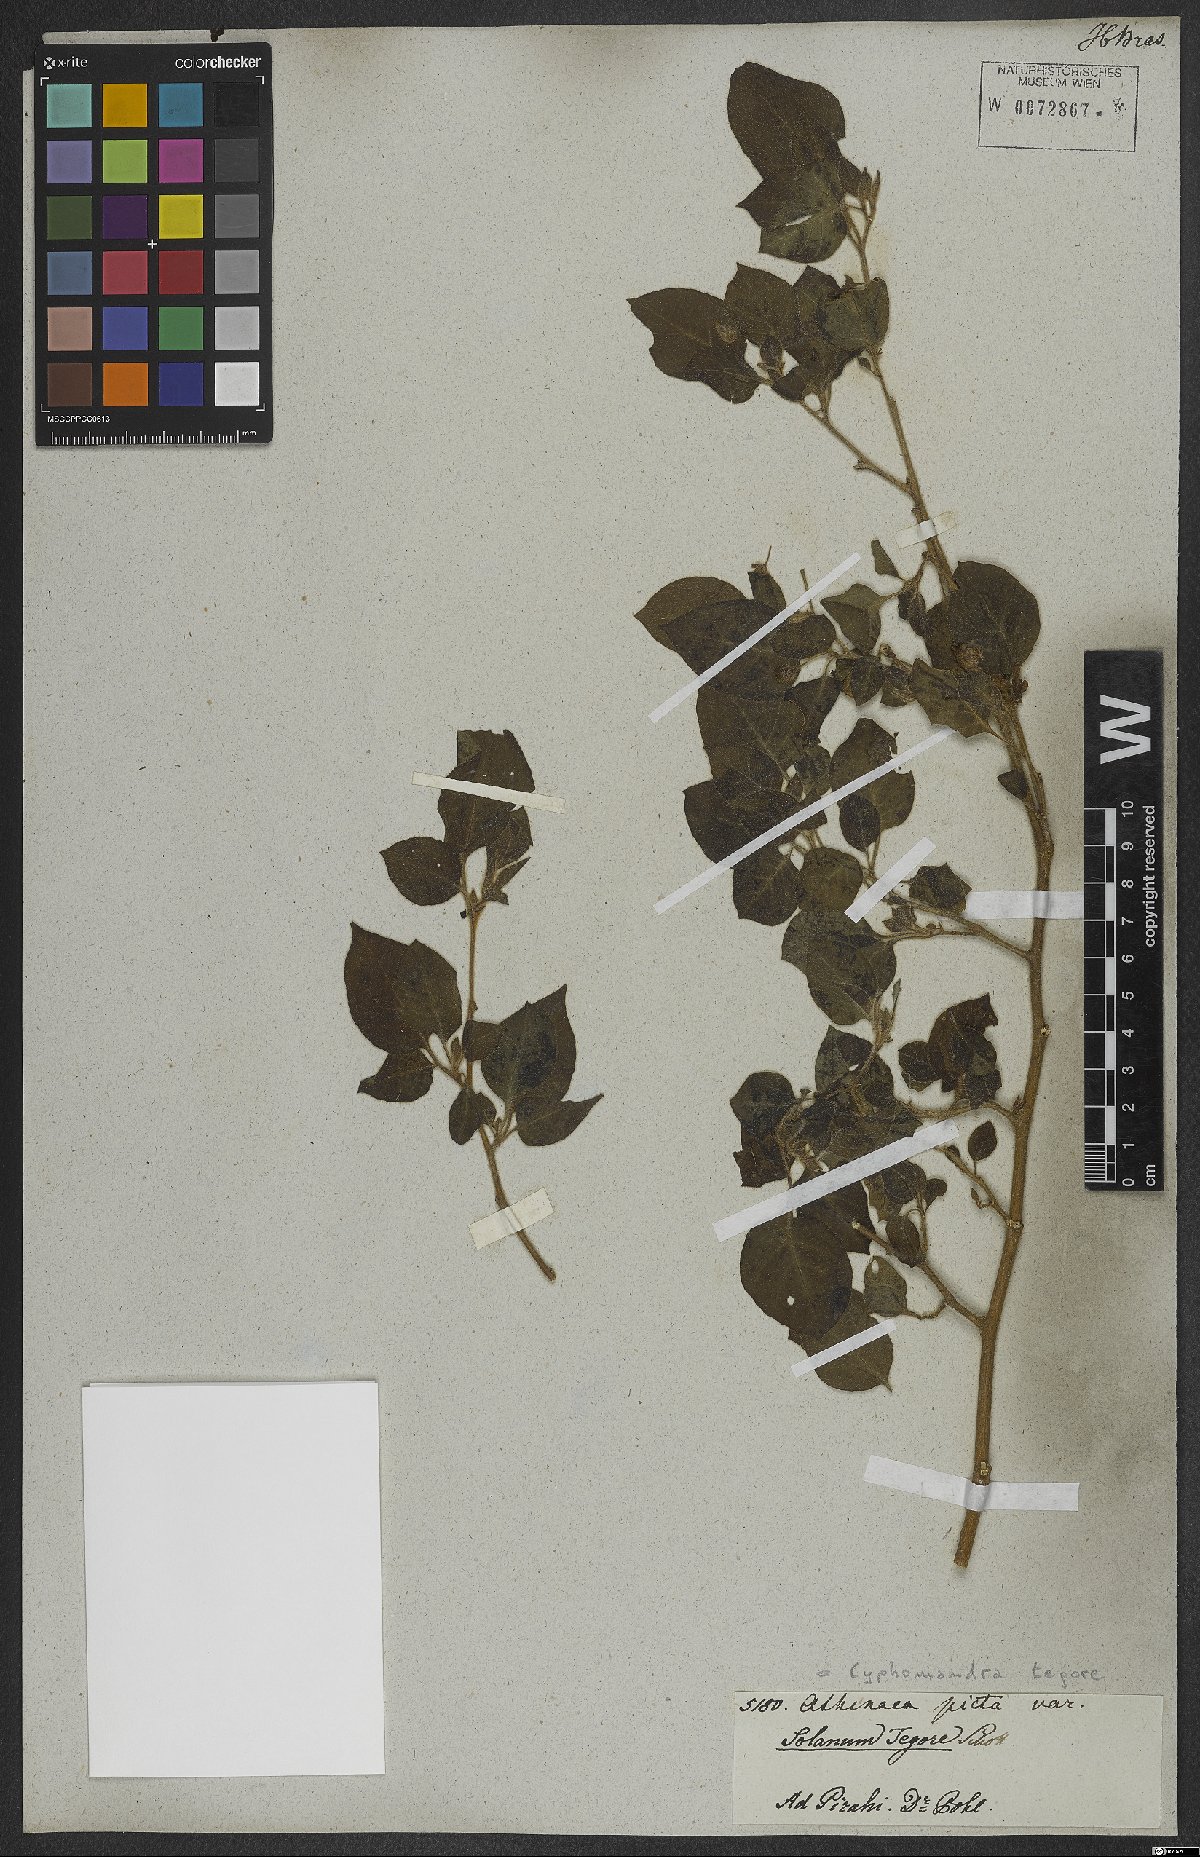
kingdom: Plantae
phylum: Tracheophyta
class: Magnoliopsida
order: Solanales
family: Solanaceae
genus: Solanum
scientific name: Solanum tegore
